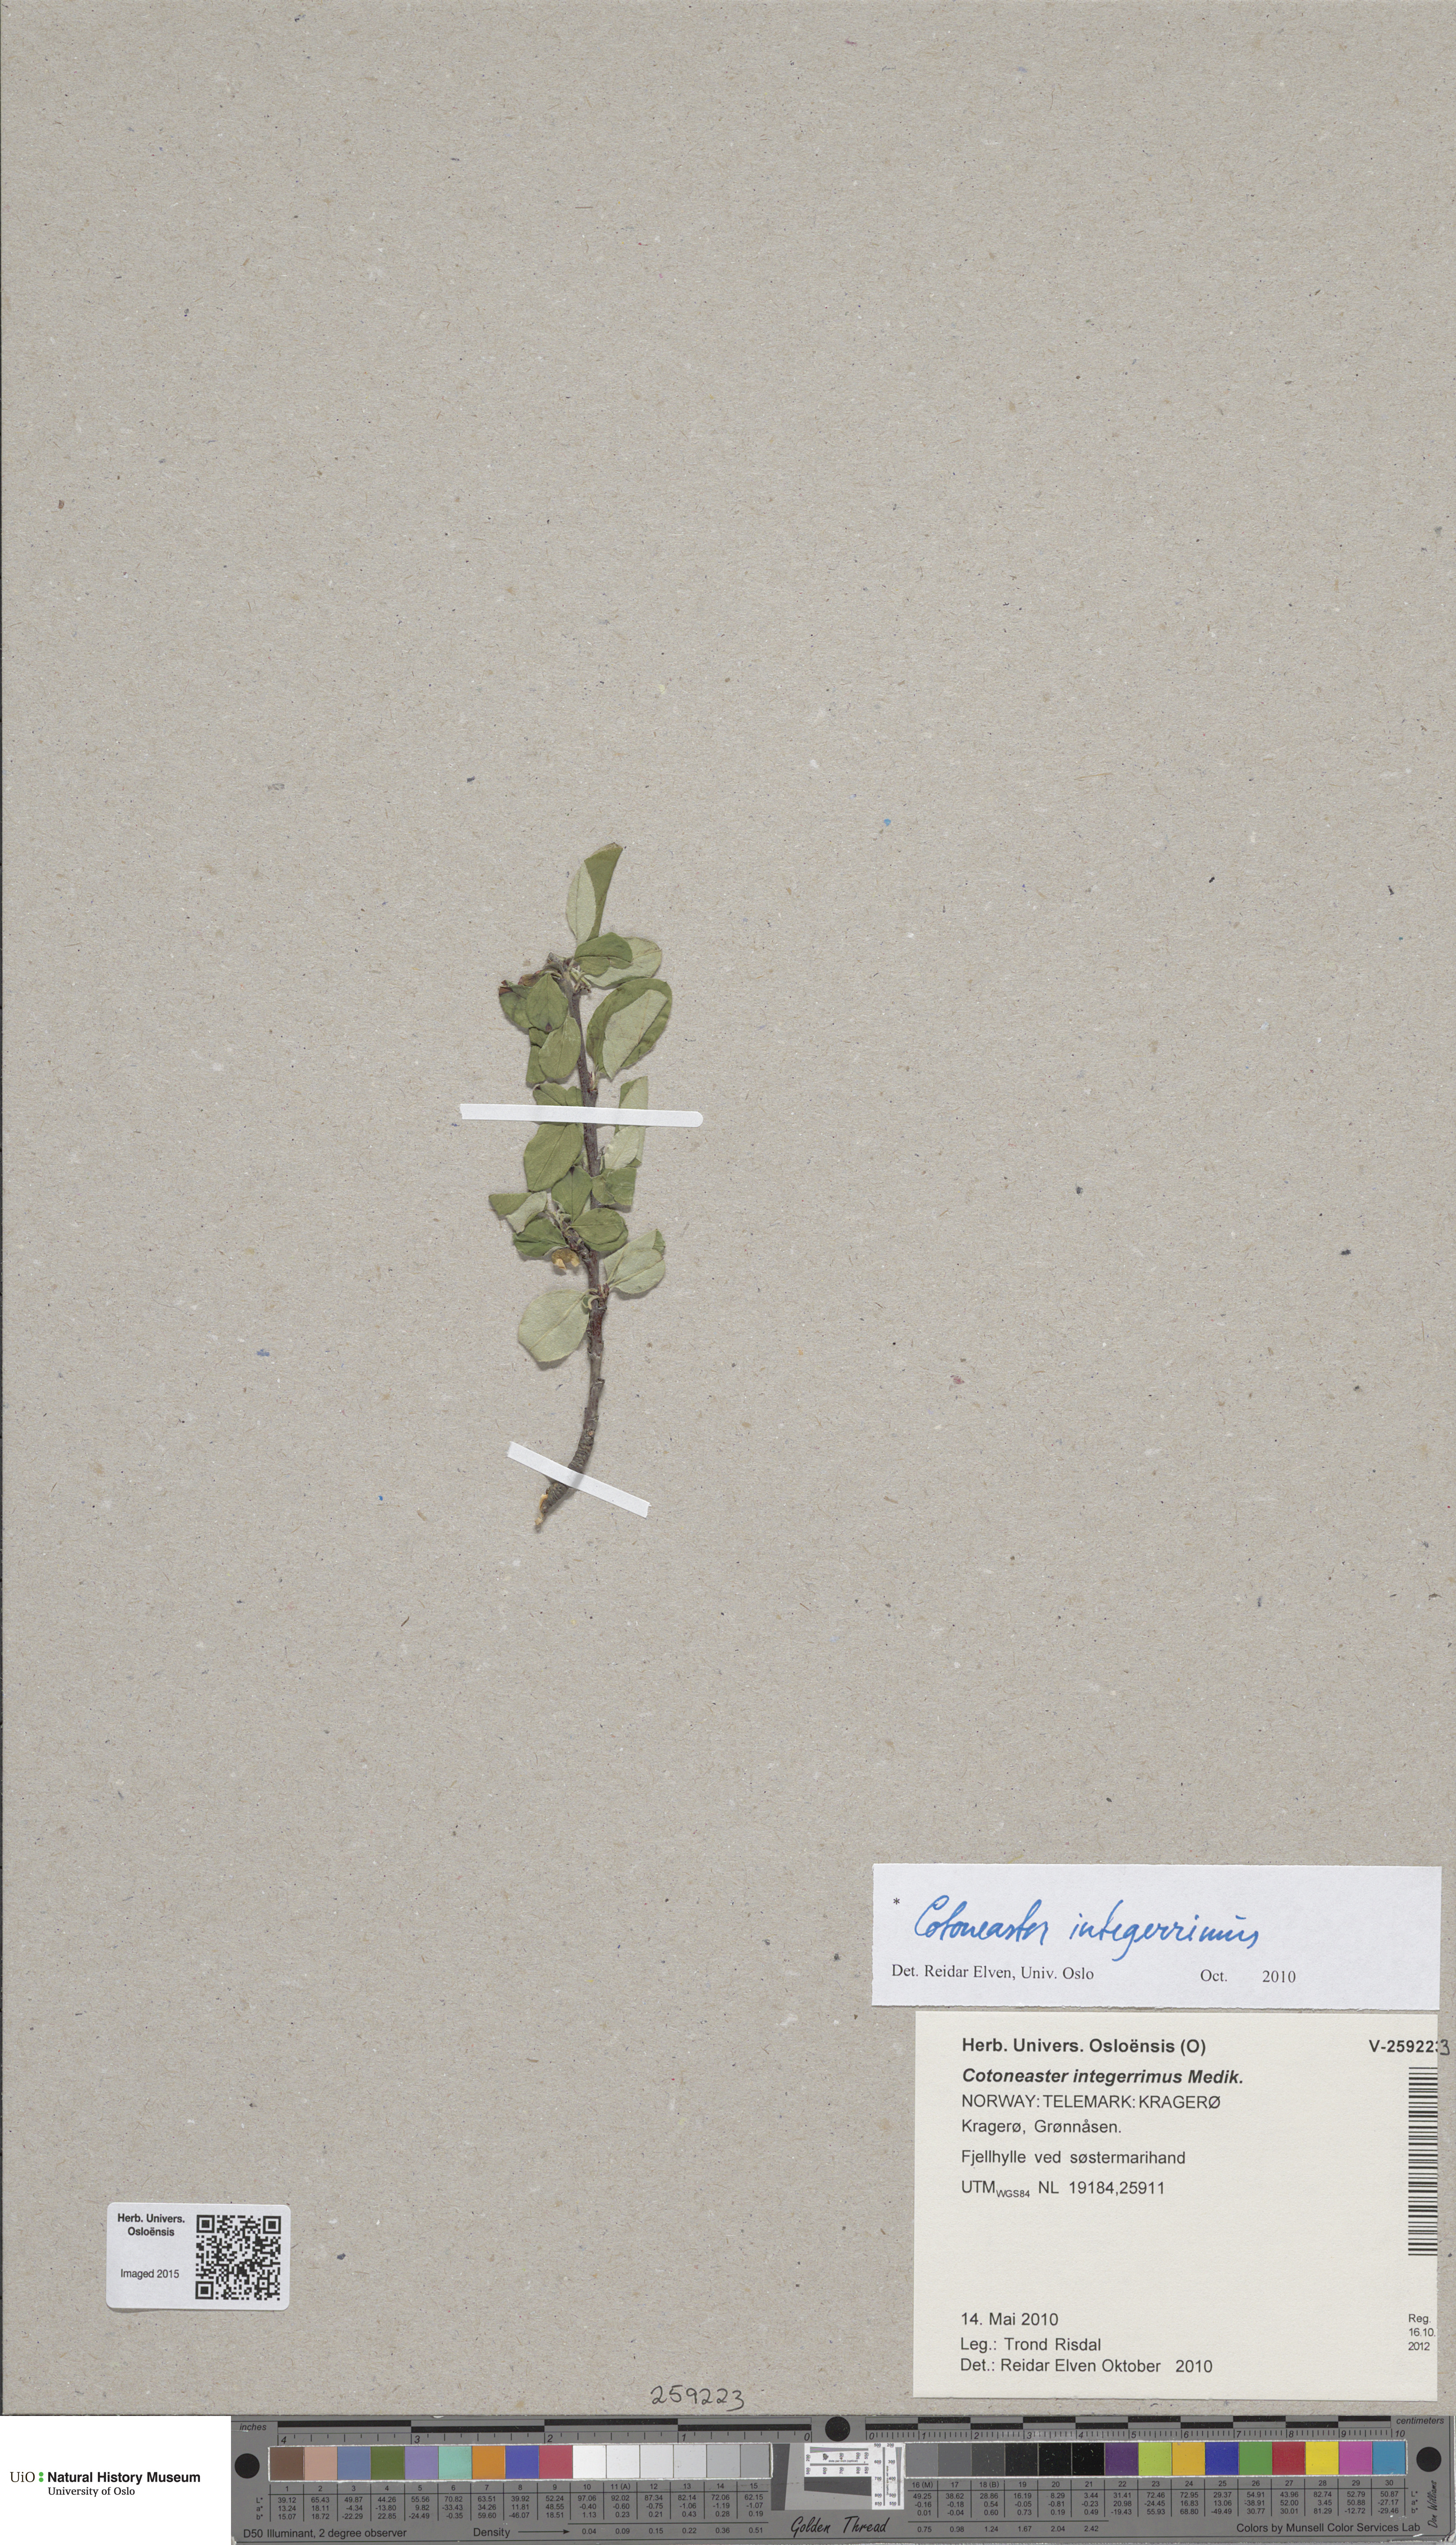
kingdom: Plantae
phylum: Tracheophyta
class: Magnoliopsida
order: Rosales
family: Rosaceae
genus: Cotoneaster
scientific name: Cotoneaster integerrimus
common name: Wild cotoneaster
